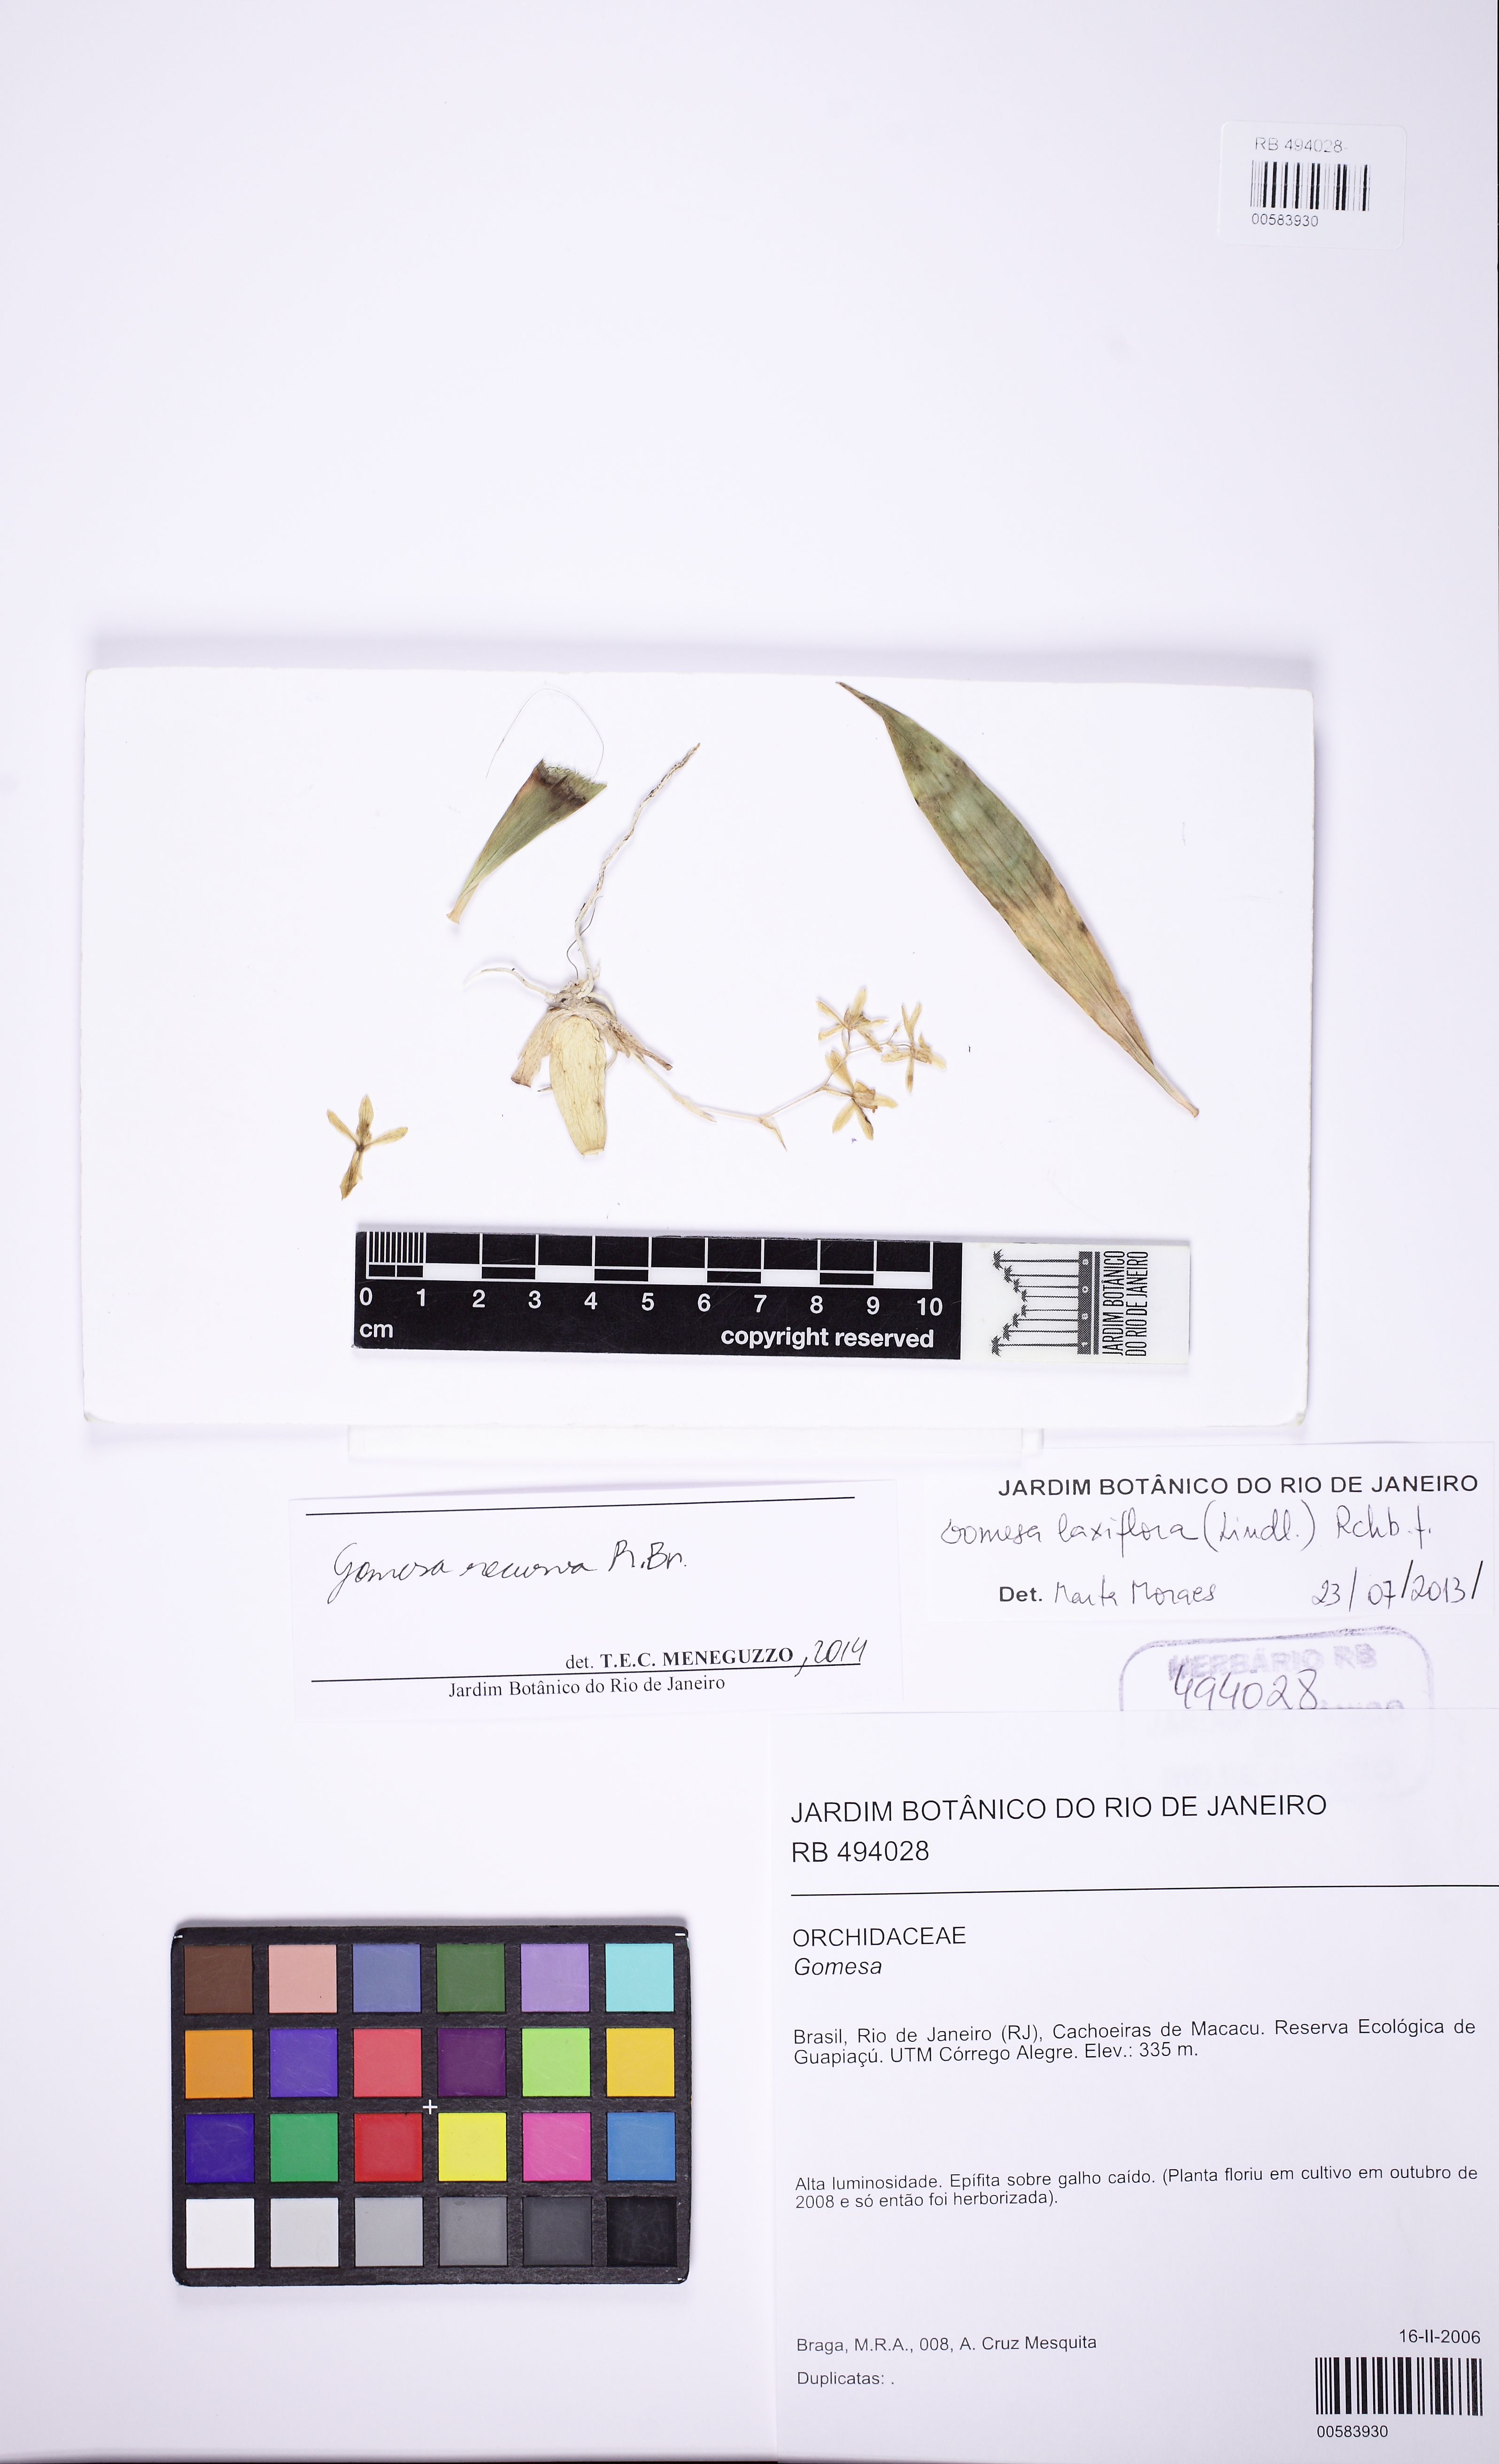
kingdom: Plantae
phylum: Tracheophyta
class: Liliopsida
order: Asparagales
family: Orchidaceae
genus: Gomesa
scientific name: Gomesa laxiflora
